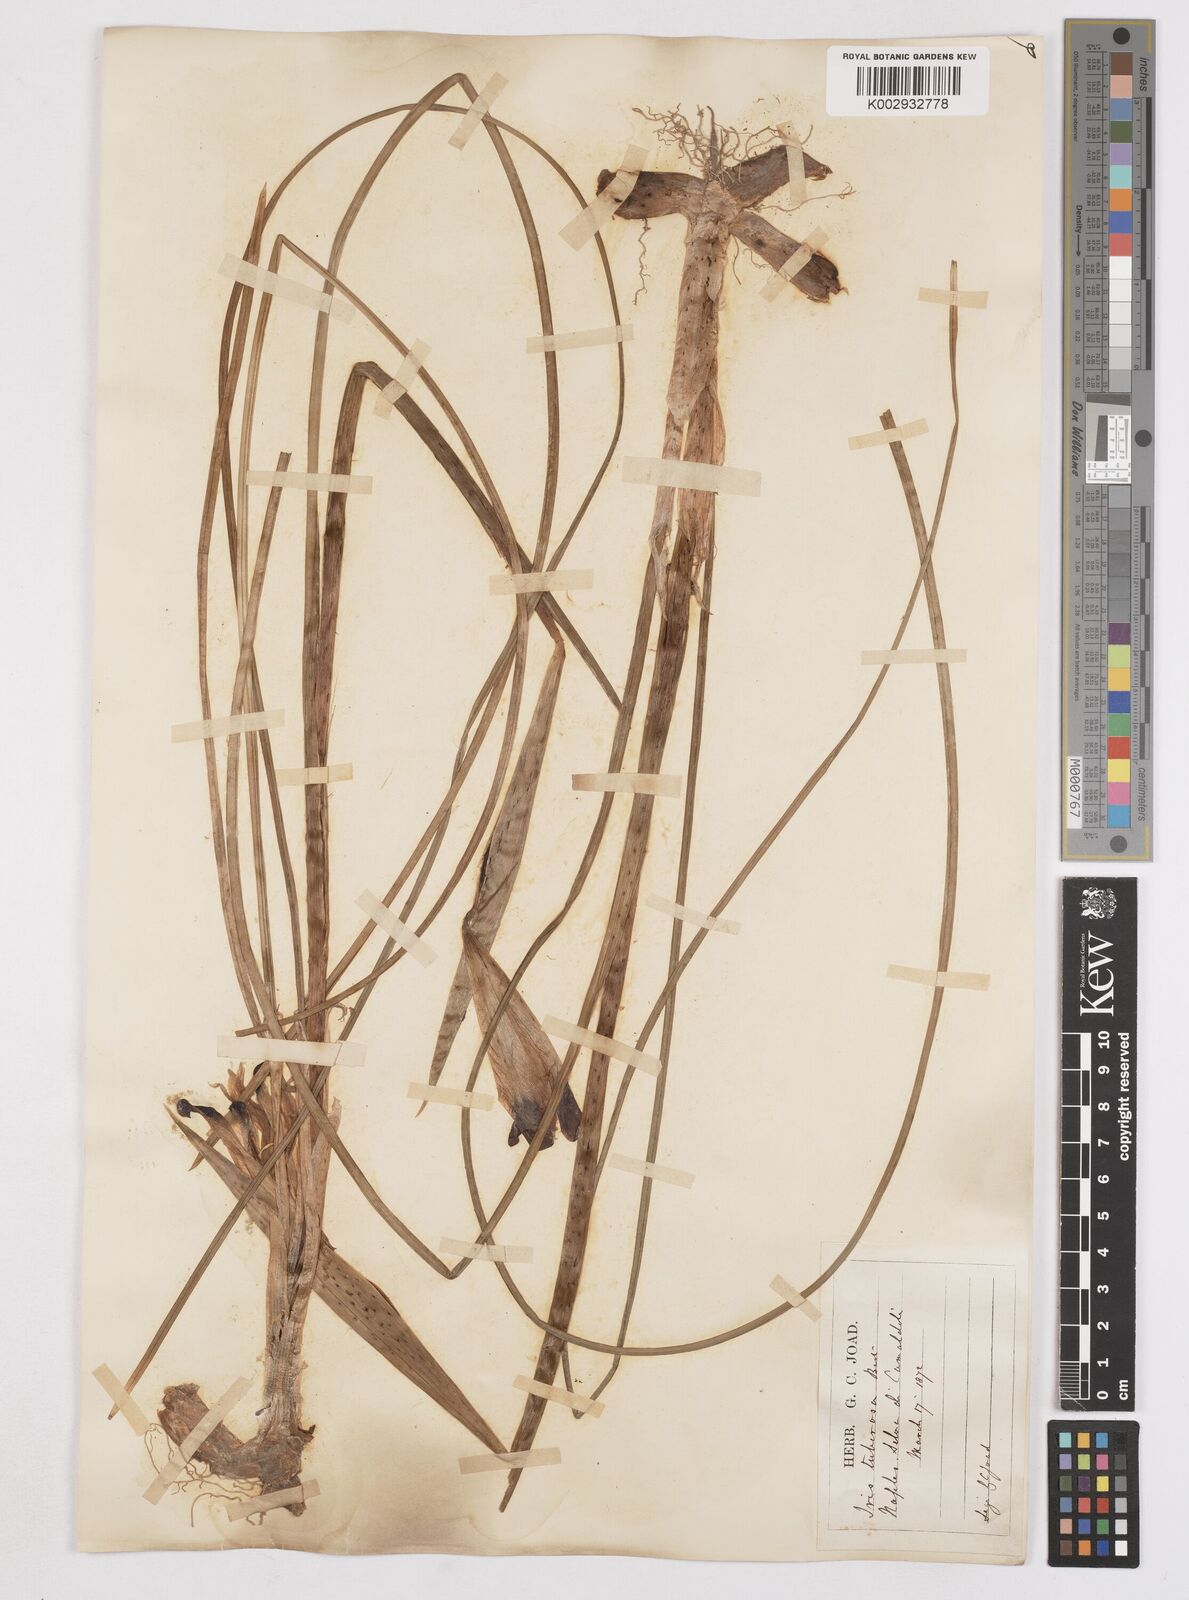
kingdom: Plantae
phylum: Tracheophyta
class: Liliopsida
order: Asparagales
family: Iridaceae
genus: Iris
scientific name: Iris tuberosa
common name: Snake's-head iris
